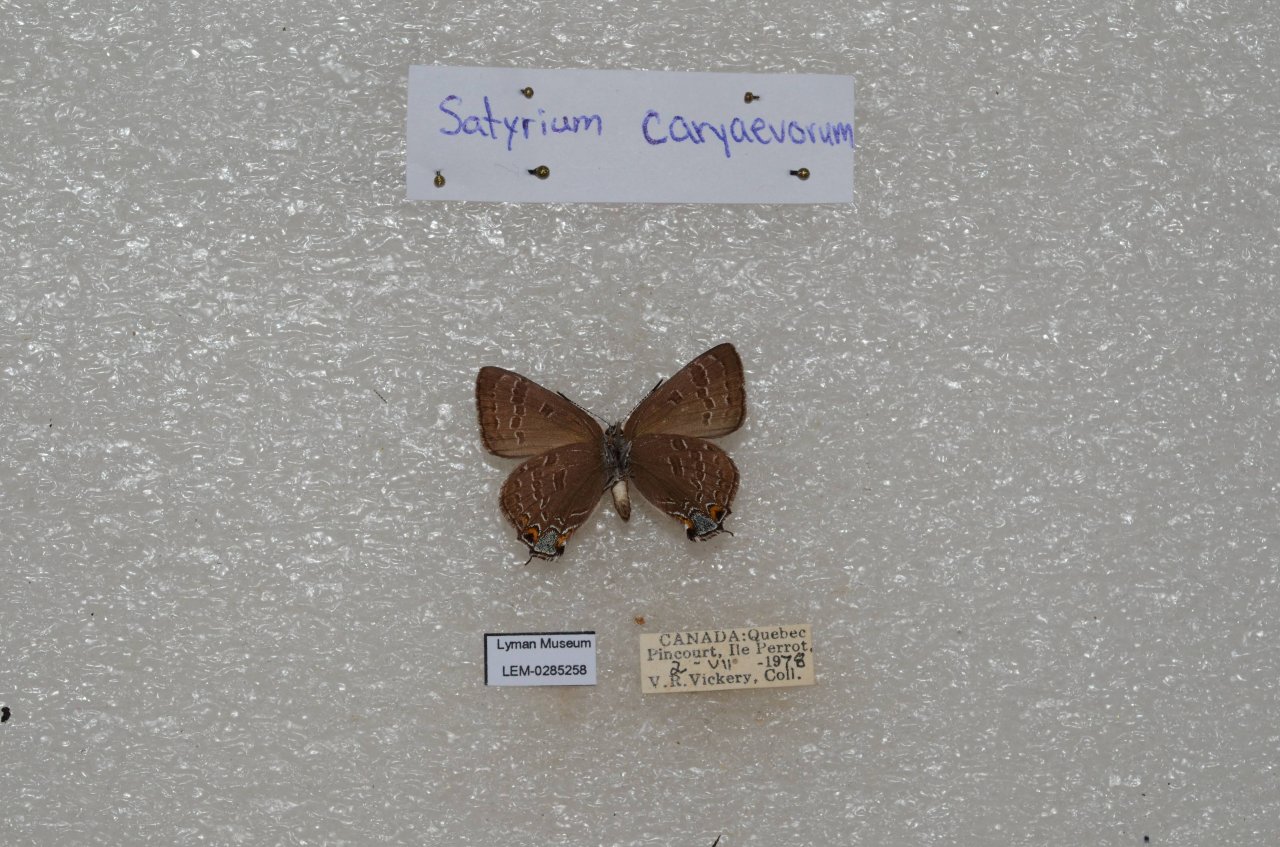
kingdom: Animalia
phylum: Arthropoda
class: Insecta
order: Lepidoptera
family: Lycaenidae
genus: Strymon
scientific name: Strymon caryaevorus
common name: Hickory Hairstreak
